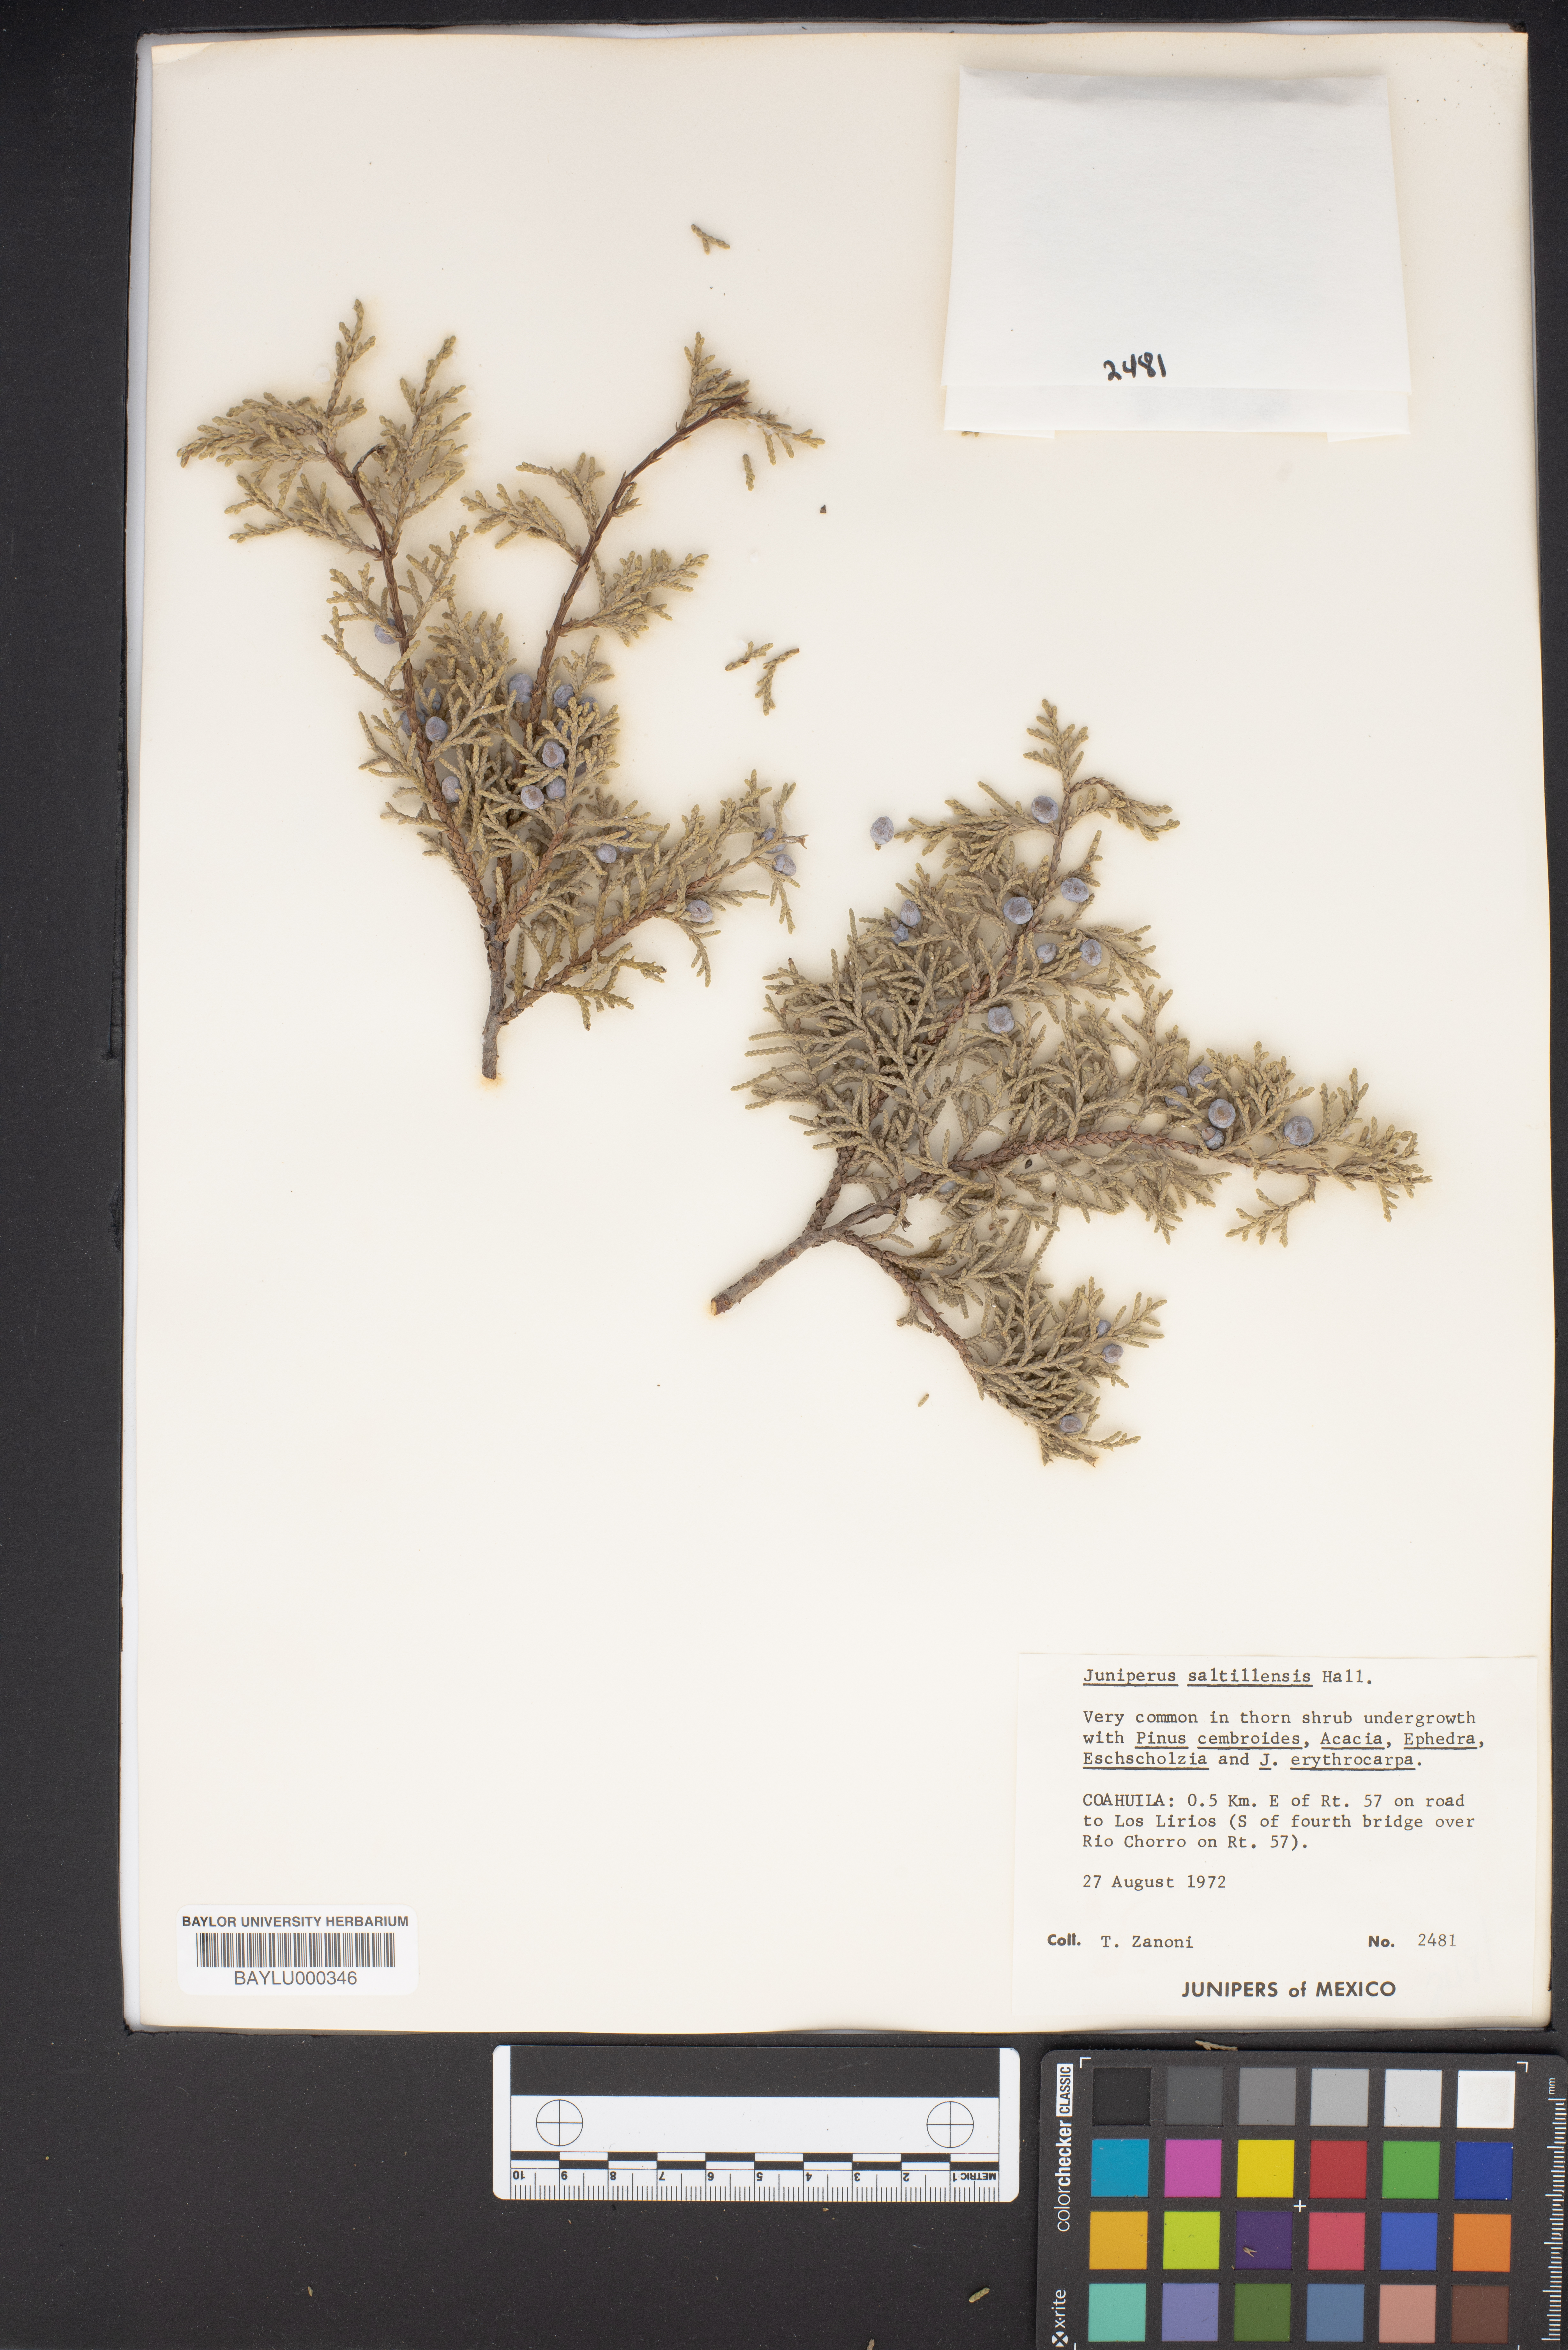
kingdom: Plantae
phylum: Tracheophyta
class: Pinopsida
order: Pinales
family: Cupressaceae
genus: Juniperus
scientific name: Juniperus saltillensis
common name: Saltillo juniper
